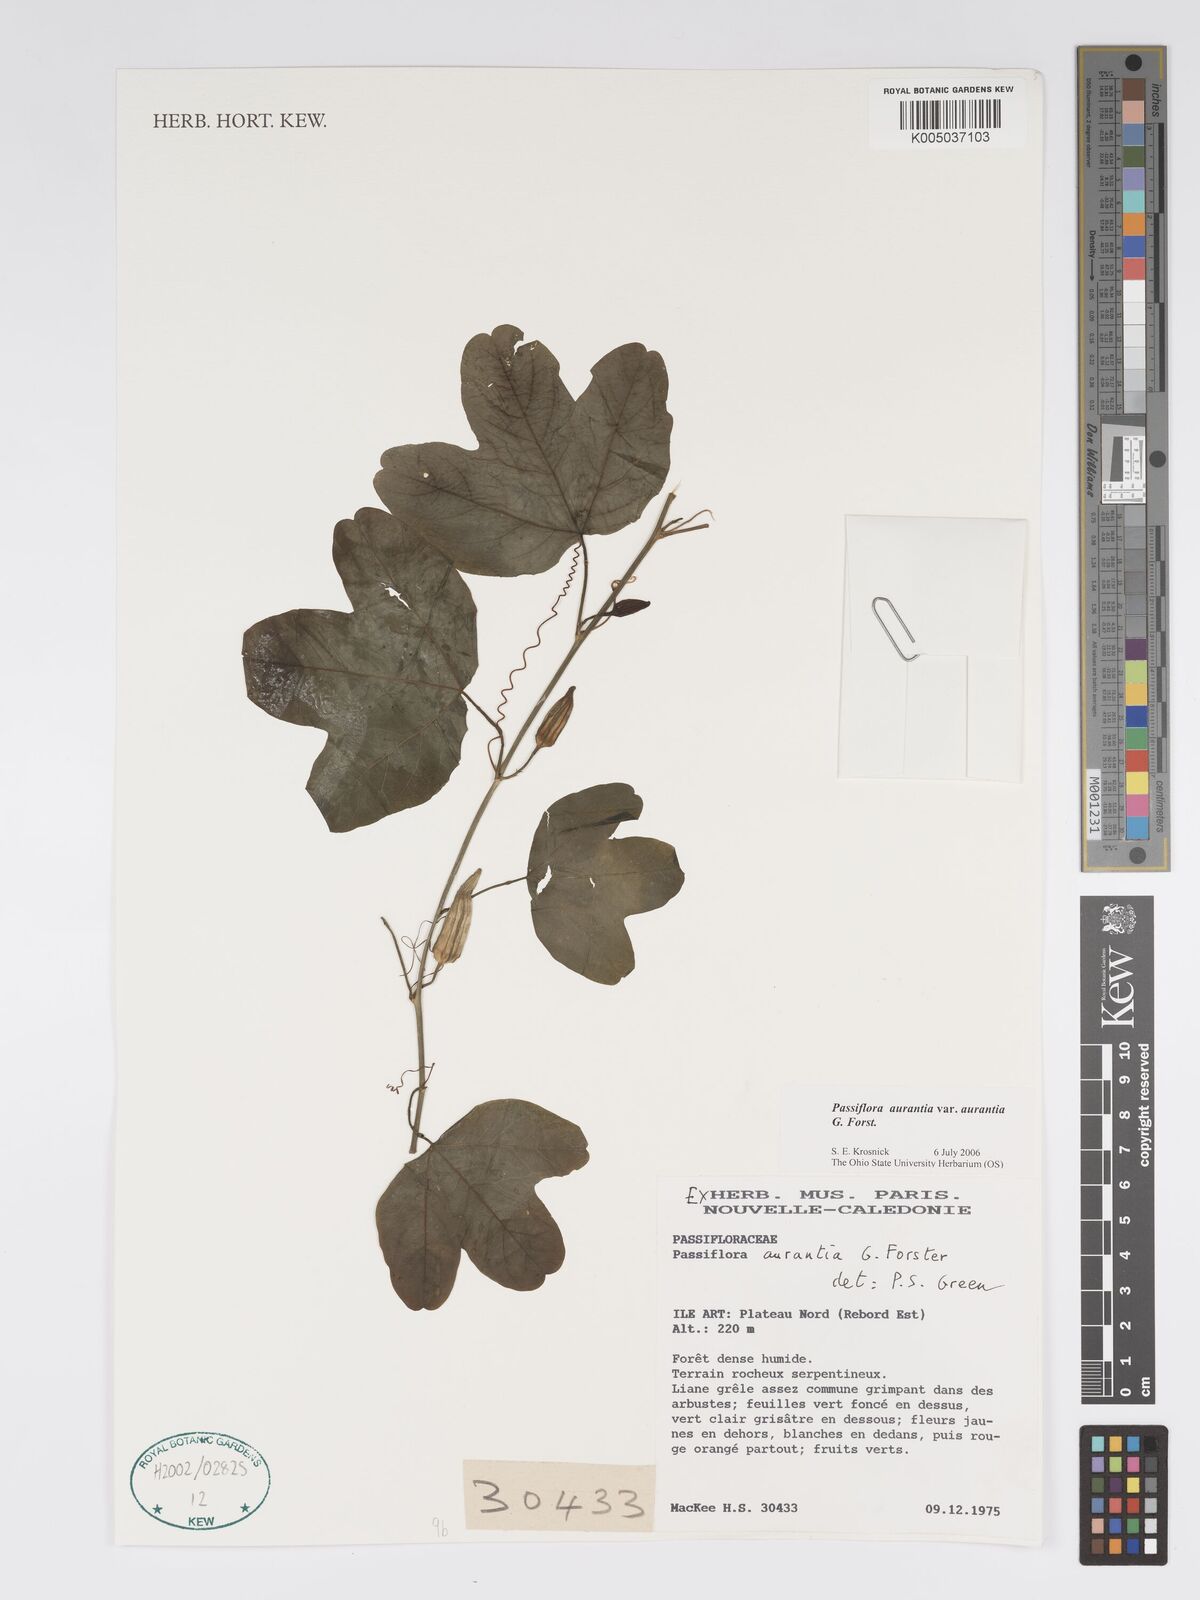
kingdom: Plantae
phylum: Tracheophyta
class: Magnoliopsida
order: Malpighiales
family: Passifloraceae
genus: Passiflora
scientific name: Passiflora aurantia
